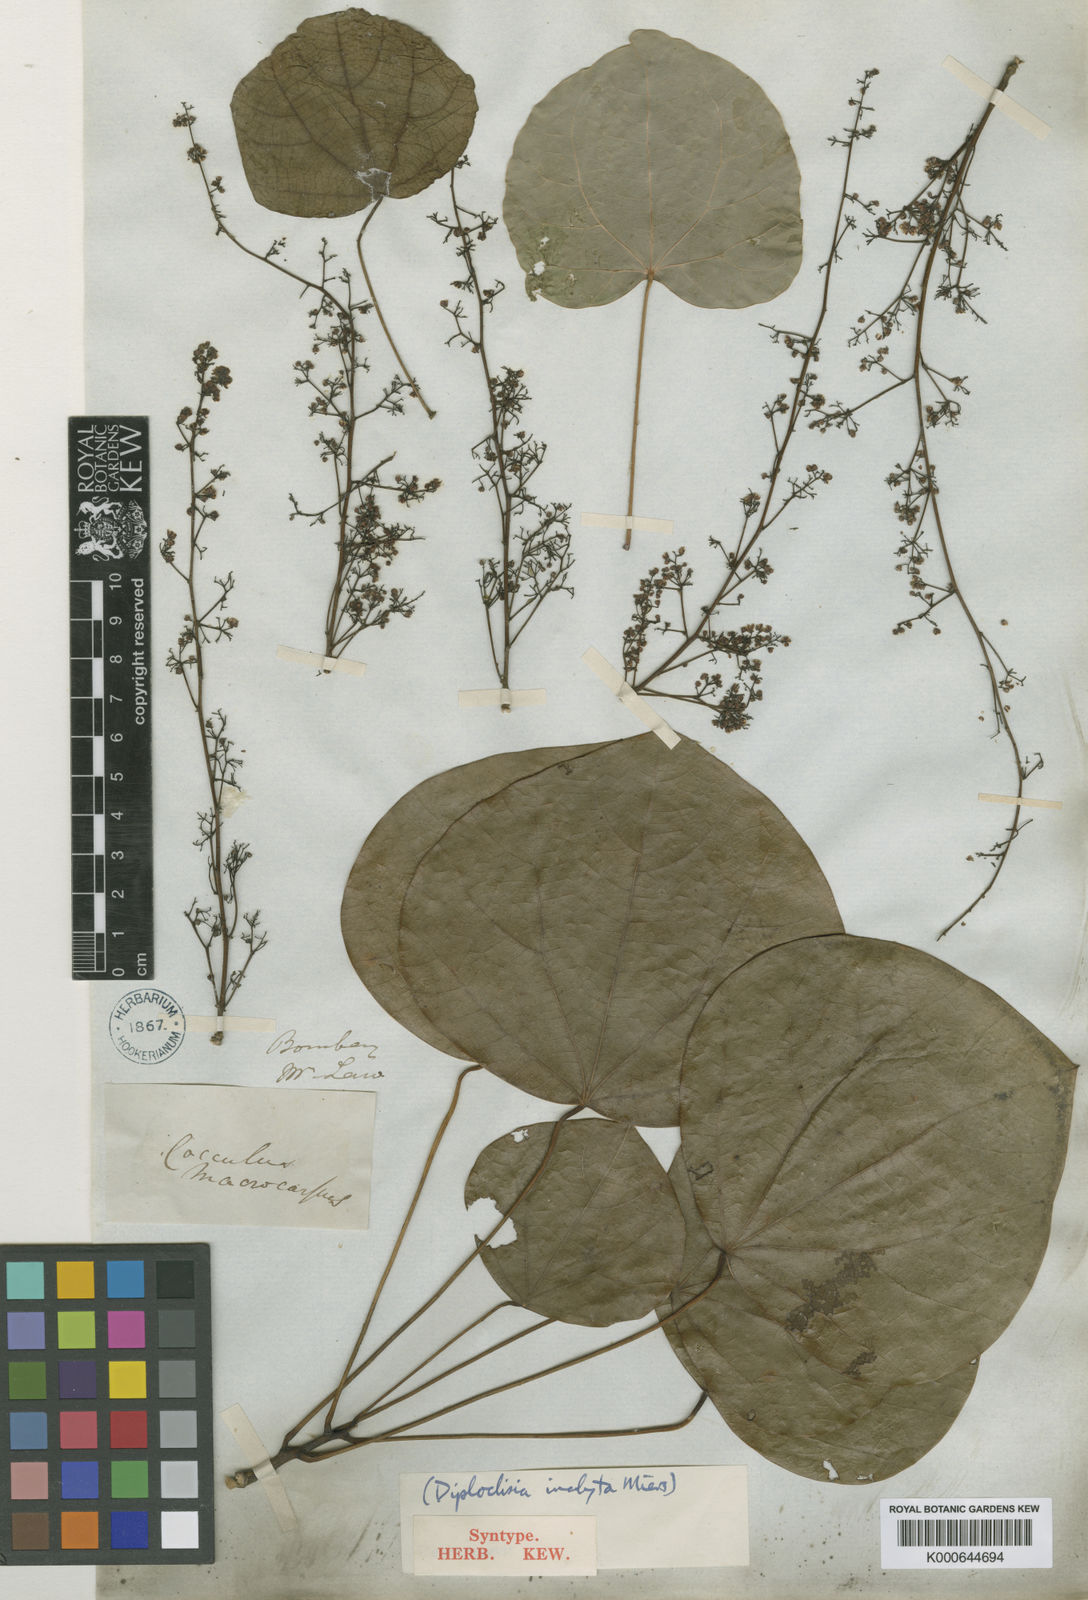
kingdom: Plantae
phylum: Tracheophyta
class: Magnoliopsida
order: Ranunculales
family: Menispermaceae
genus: Diploclisia
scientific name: Diploclisia glaucescens
